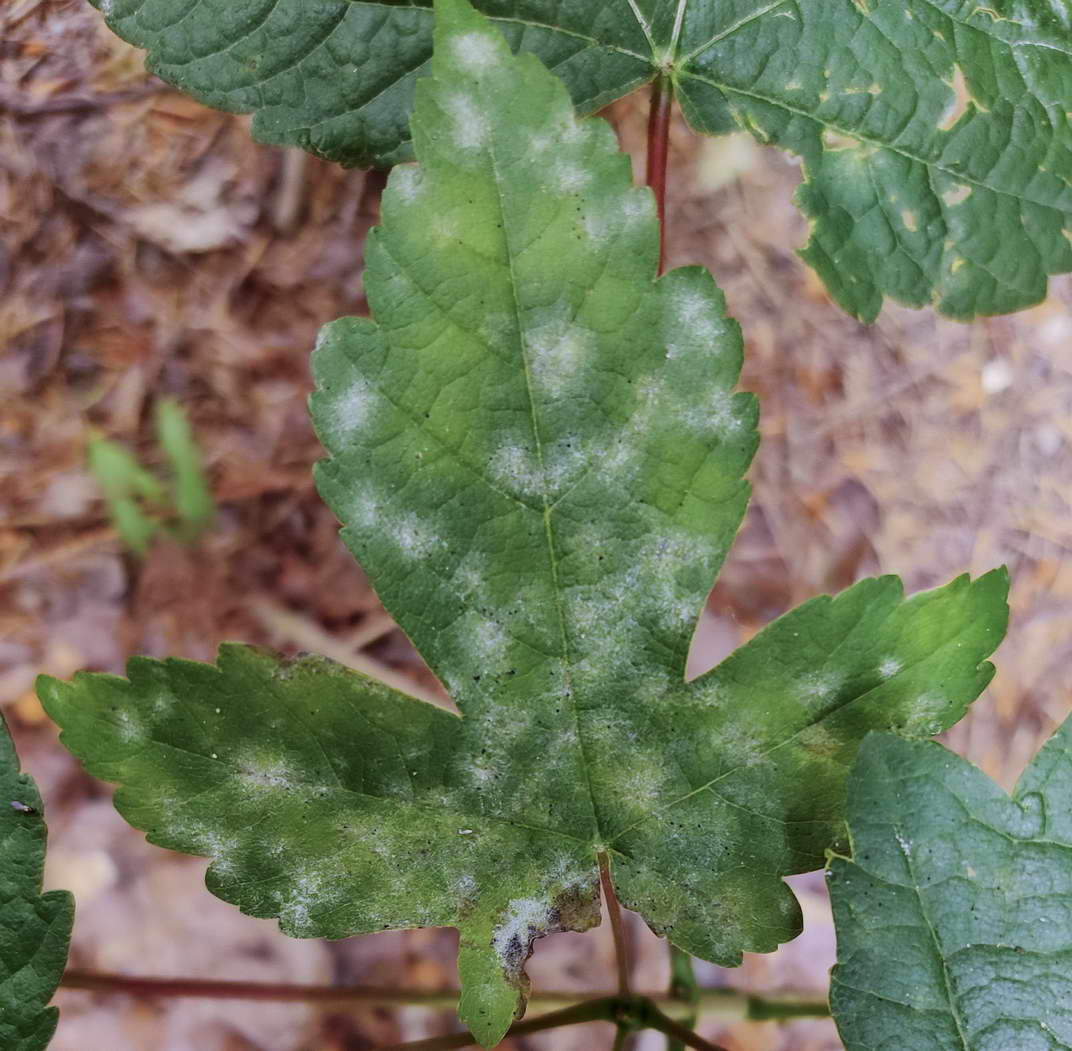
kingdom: Fungi
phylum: Ascomycota
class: Leotiomycetes
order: Helotiales
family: Erysiphaceae
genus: Sawadaea
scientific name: Sawadaea bicornis
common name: Maple mildew
